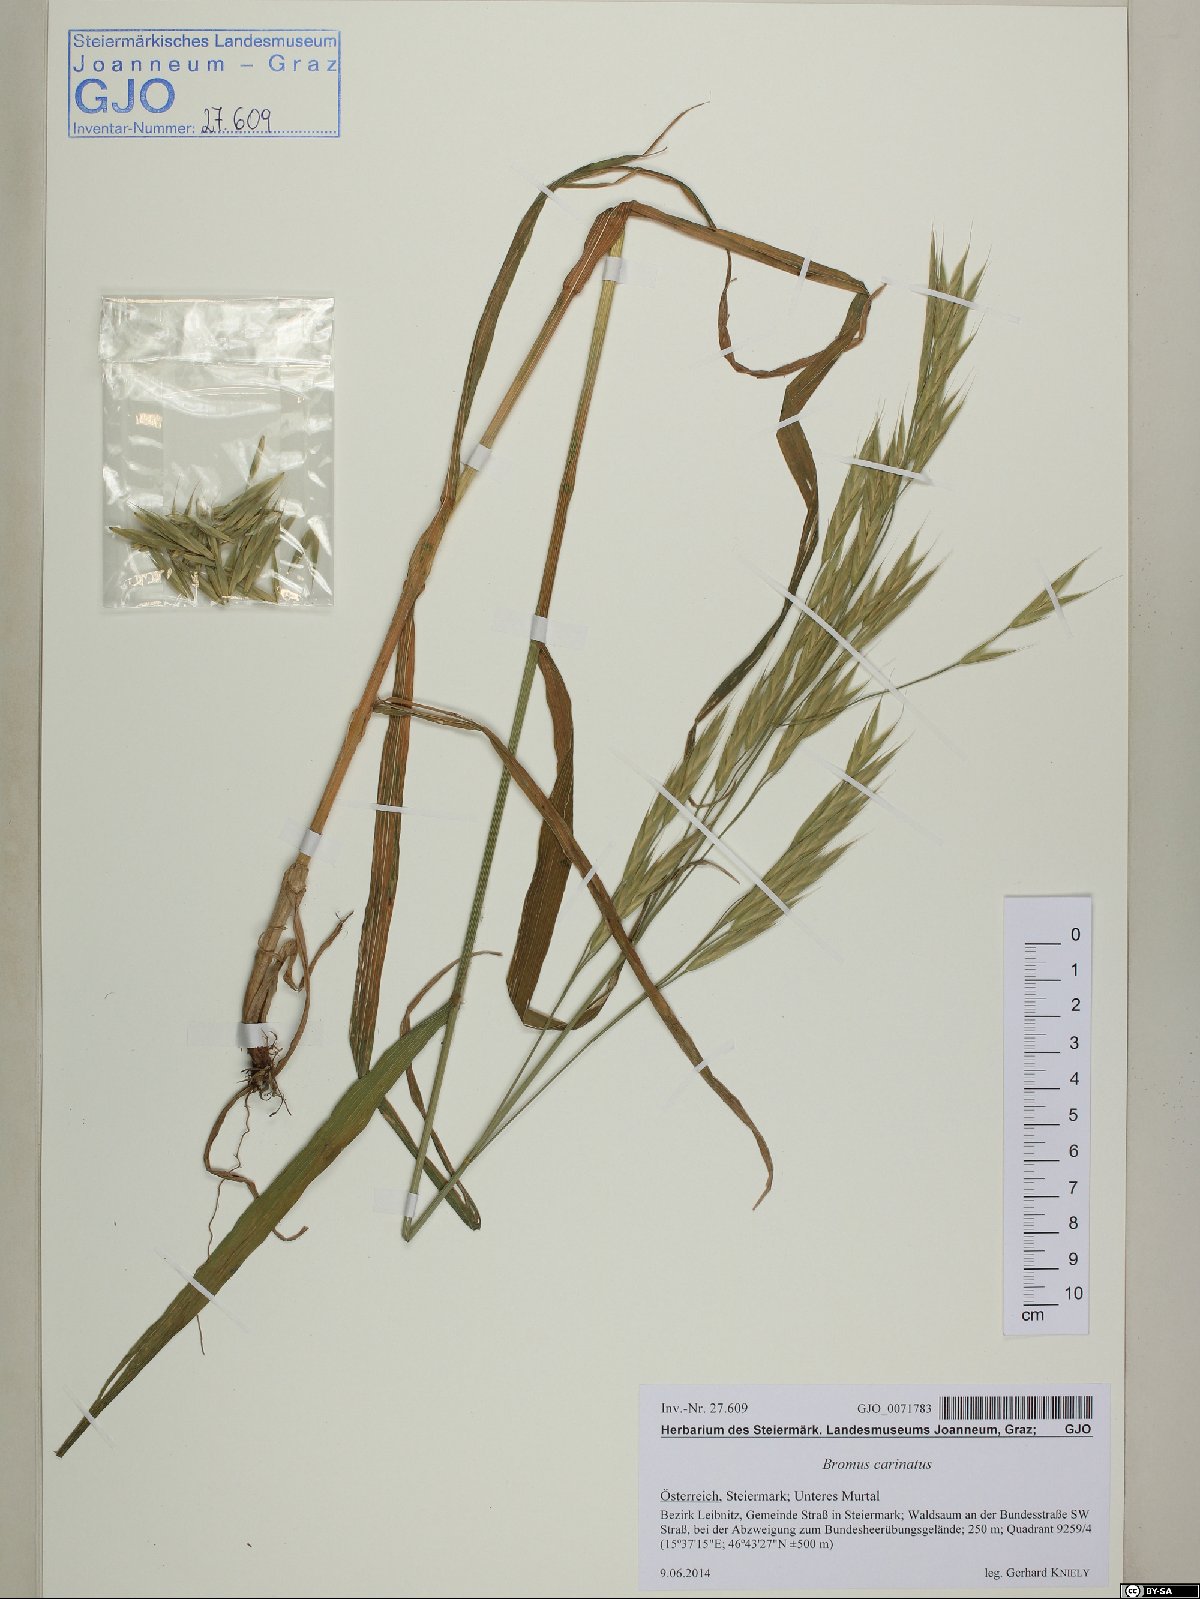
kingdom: Plantae
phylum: Tracheophyta
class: Liliopsida
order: Poales
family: Poaceae
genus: Bromus
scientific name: Bromus carinatus
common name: Mountain brome
